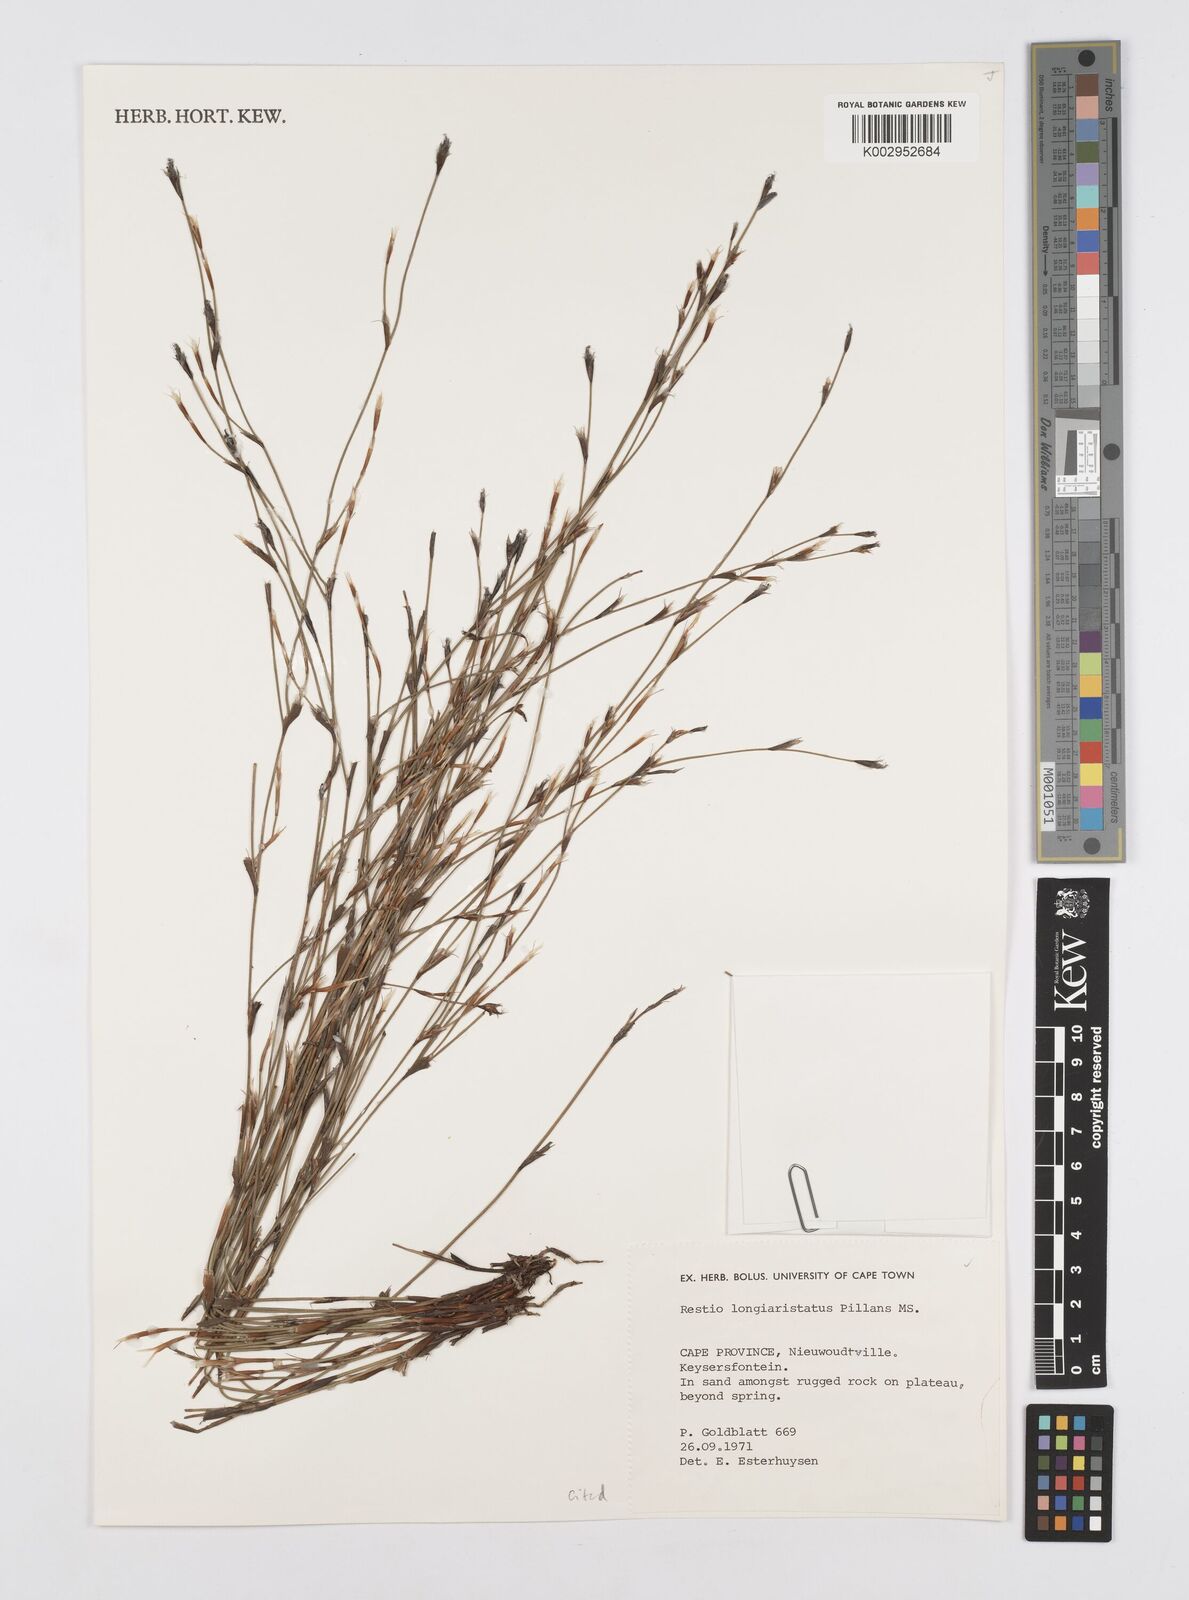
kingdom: Plantae
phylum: Tracheophyta
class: Liliopsida
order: Poales
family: Restionaceae
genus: Restio
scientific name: Restio longiaristatus
